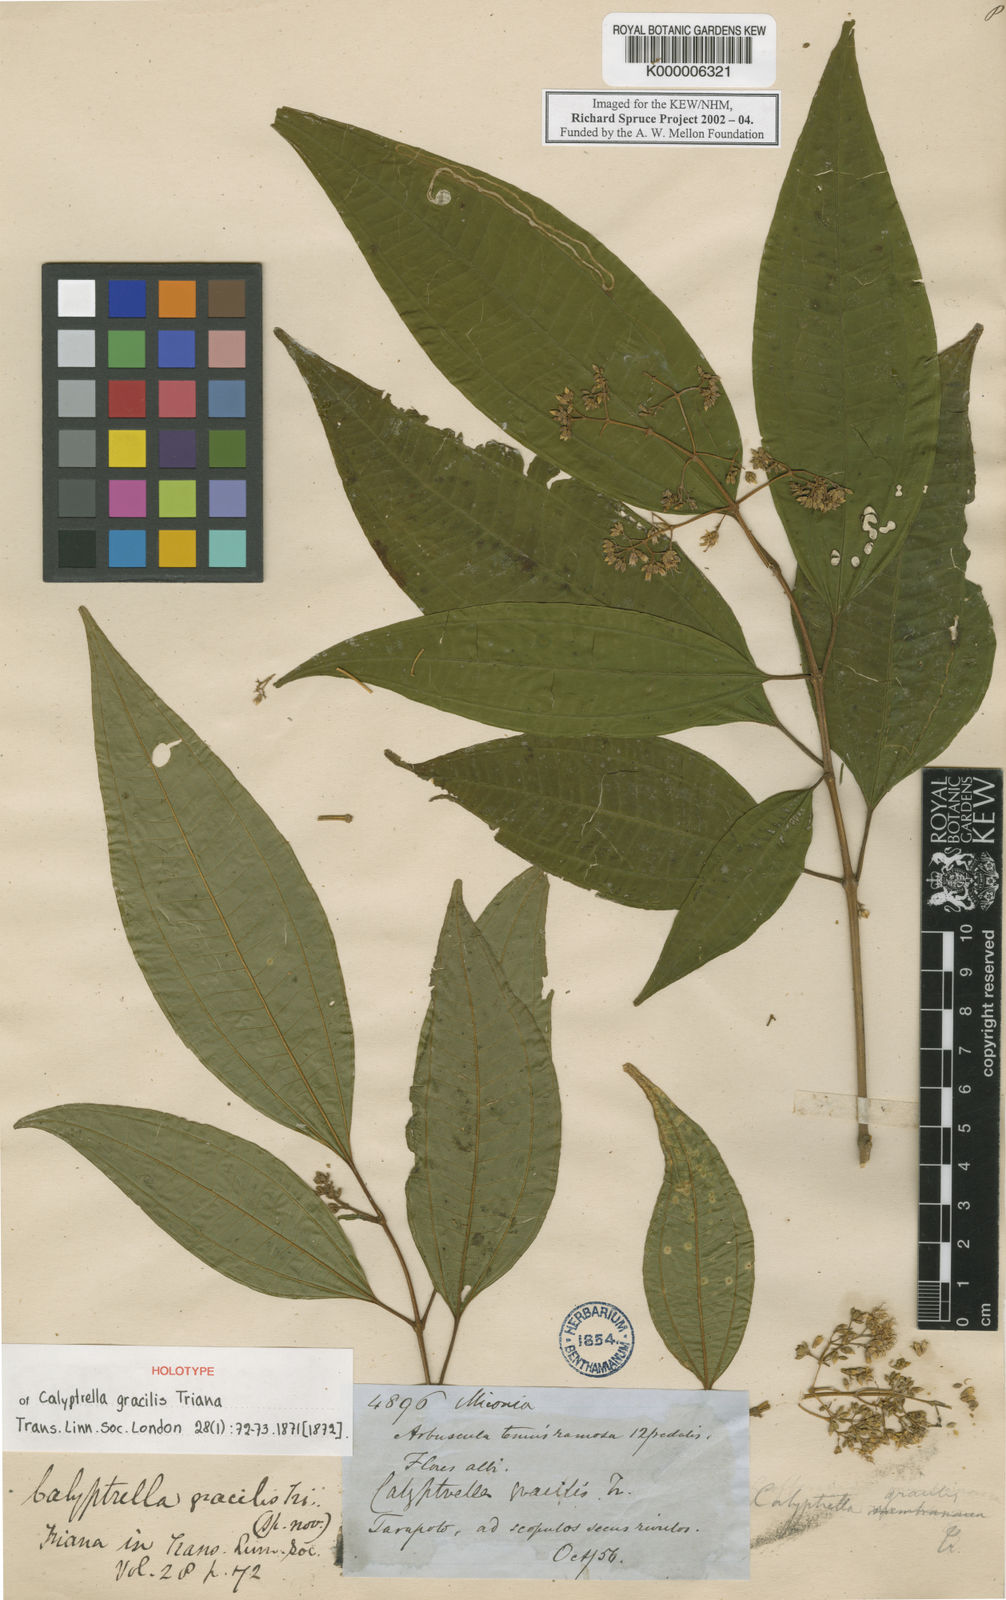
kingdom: Plantae
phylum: Tracheophyta
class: Magnoliopsida
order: Myrtales
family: Melastomataceae
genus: Graffenrieda
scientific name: Graffenrieda gracilis
